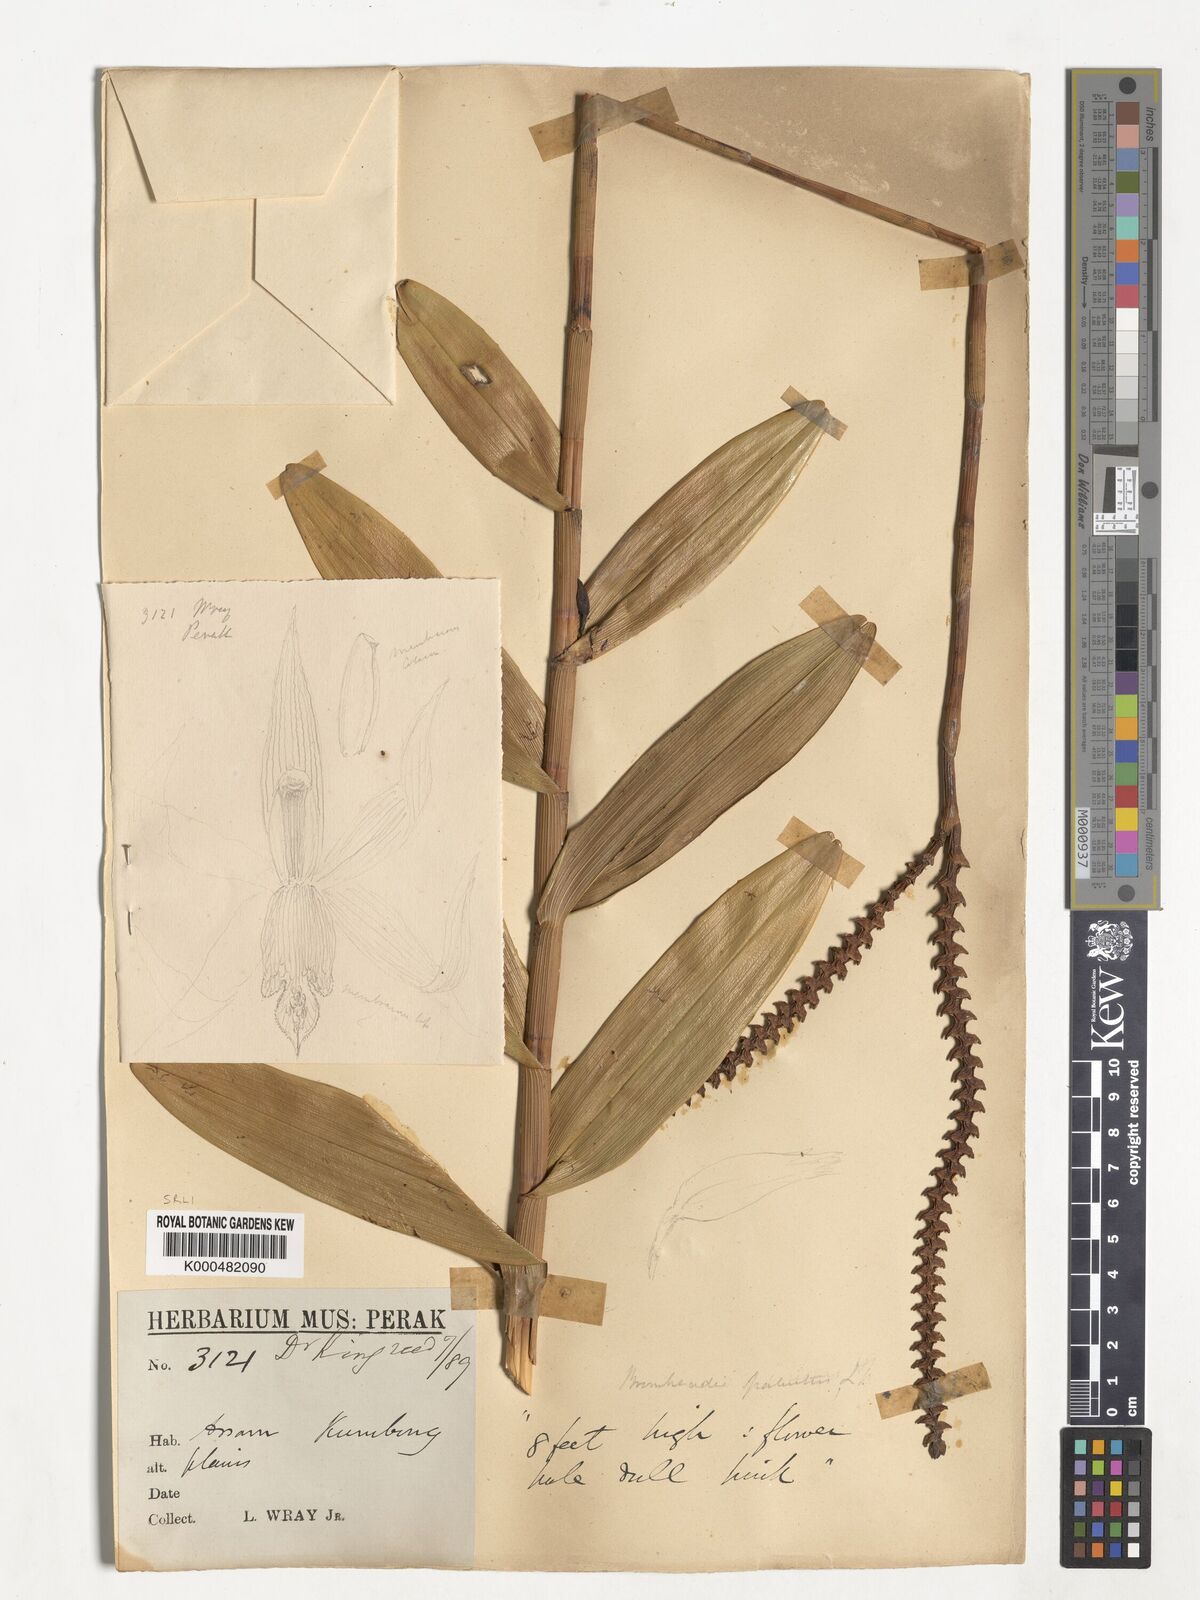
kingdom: Plantae
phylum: Tracheophyta
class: Liliopsida
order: Asparagales
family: Orchidaceae
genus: Bromheadia
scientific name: Bromheadia finlaysoniana
